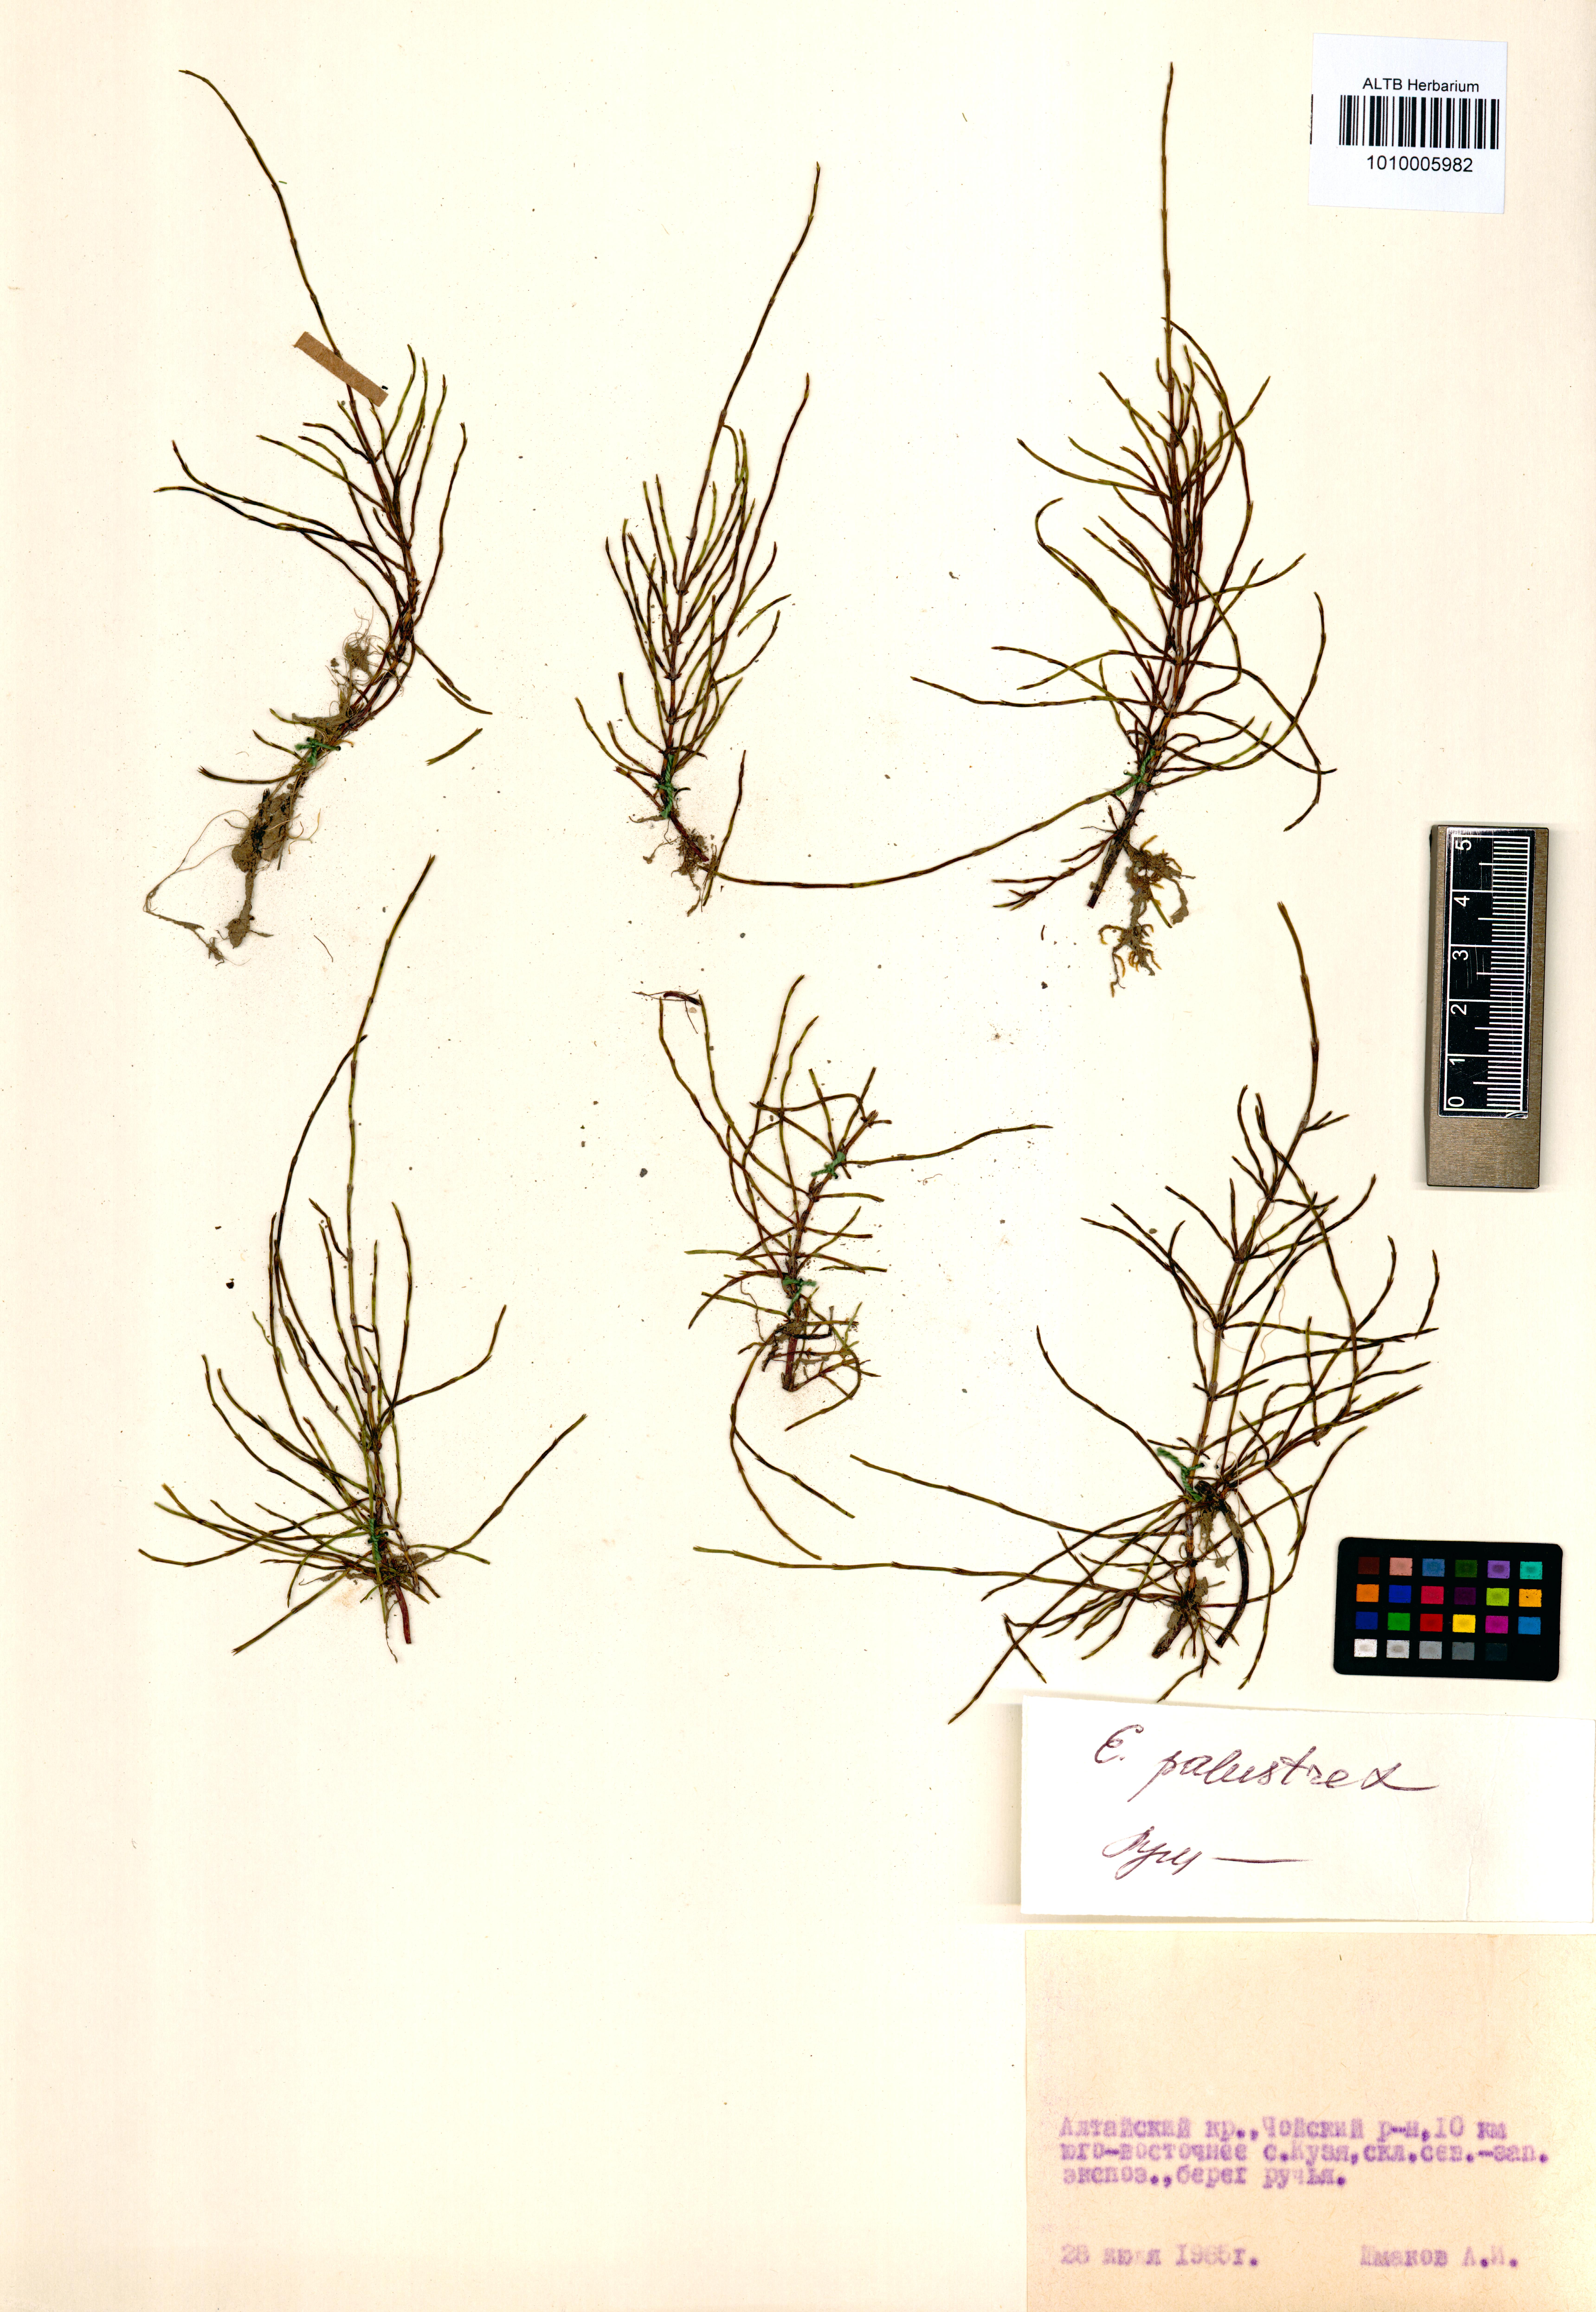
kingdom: Plantae
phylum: Tracheophyta
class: Polypodiopsida
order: Equisetales
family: Equisetaceae
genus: Equisetum
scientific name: Equisetum palustre
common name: Marsh horsetail
